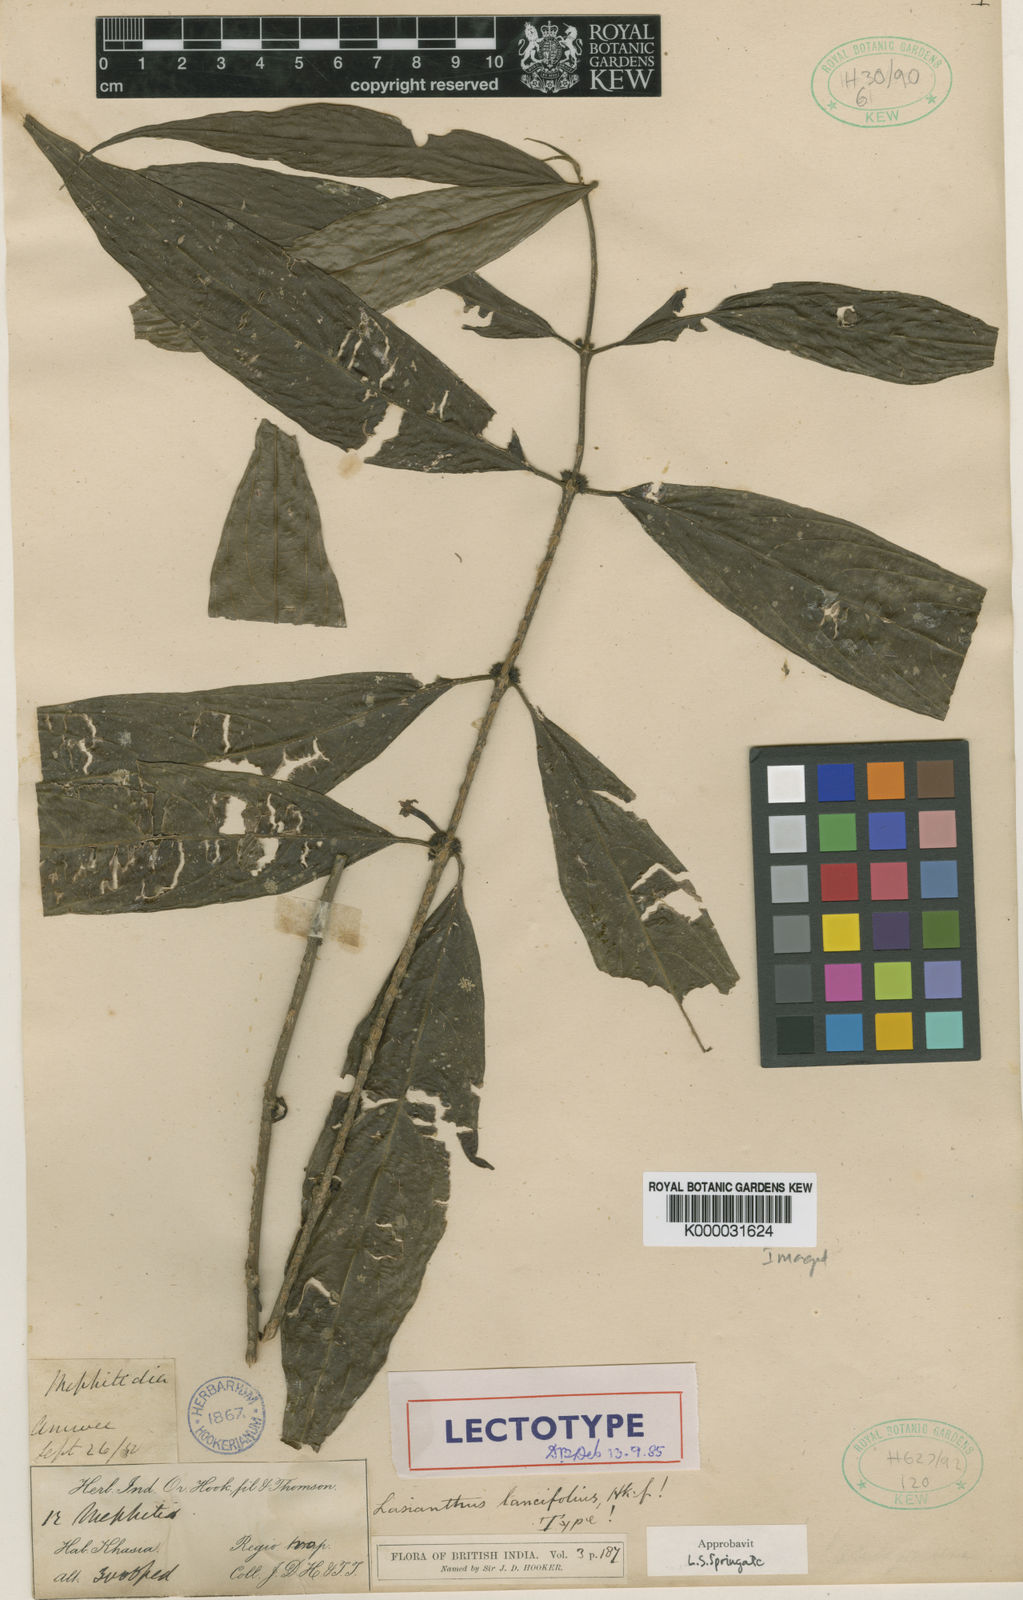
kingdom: Plantae
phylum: Tracheophyta
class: Magnoliopsida
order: Gentianales
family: Rubiaceae
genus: Lasianthus
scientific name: Lasianthus lancifolius
